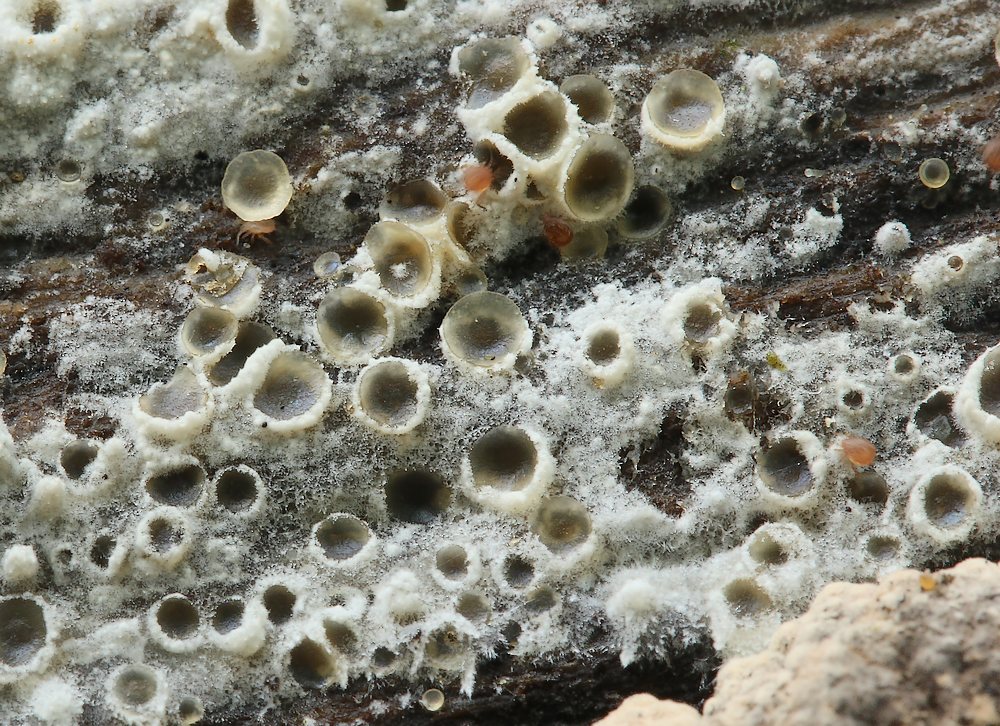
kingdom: Fungi
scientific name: Fungi
